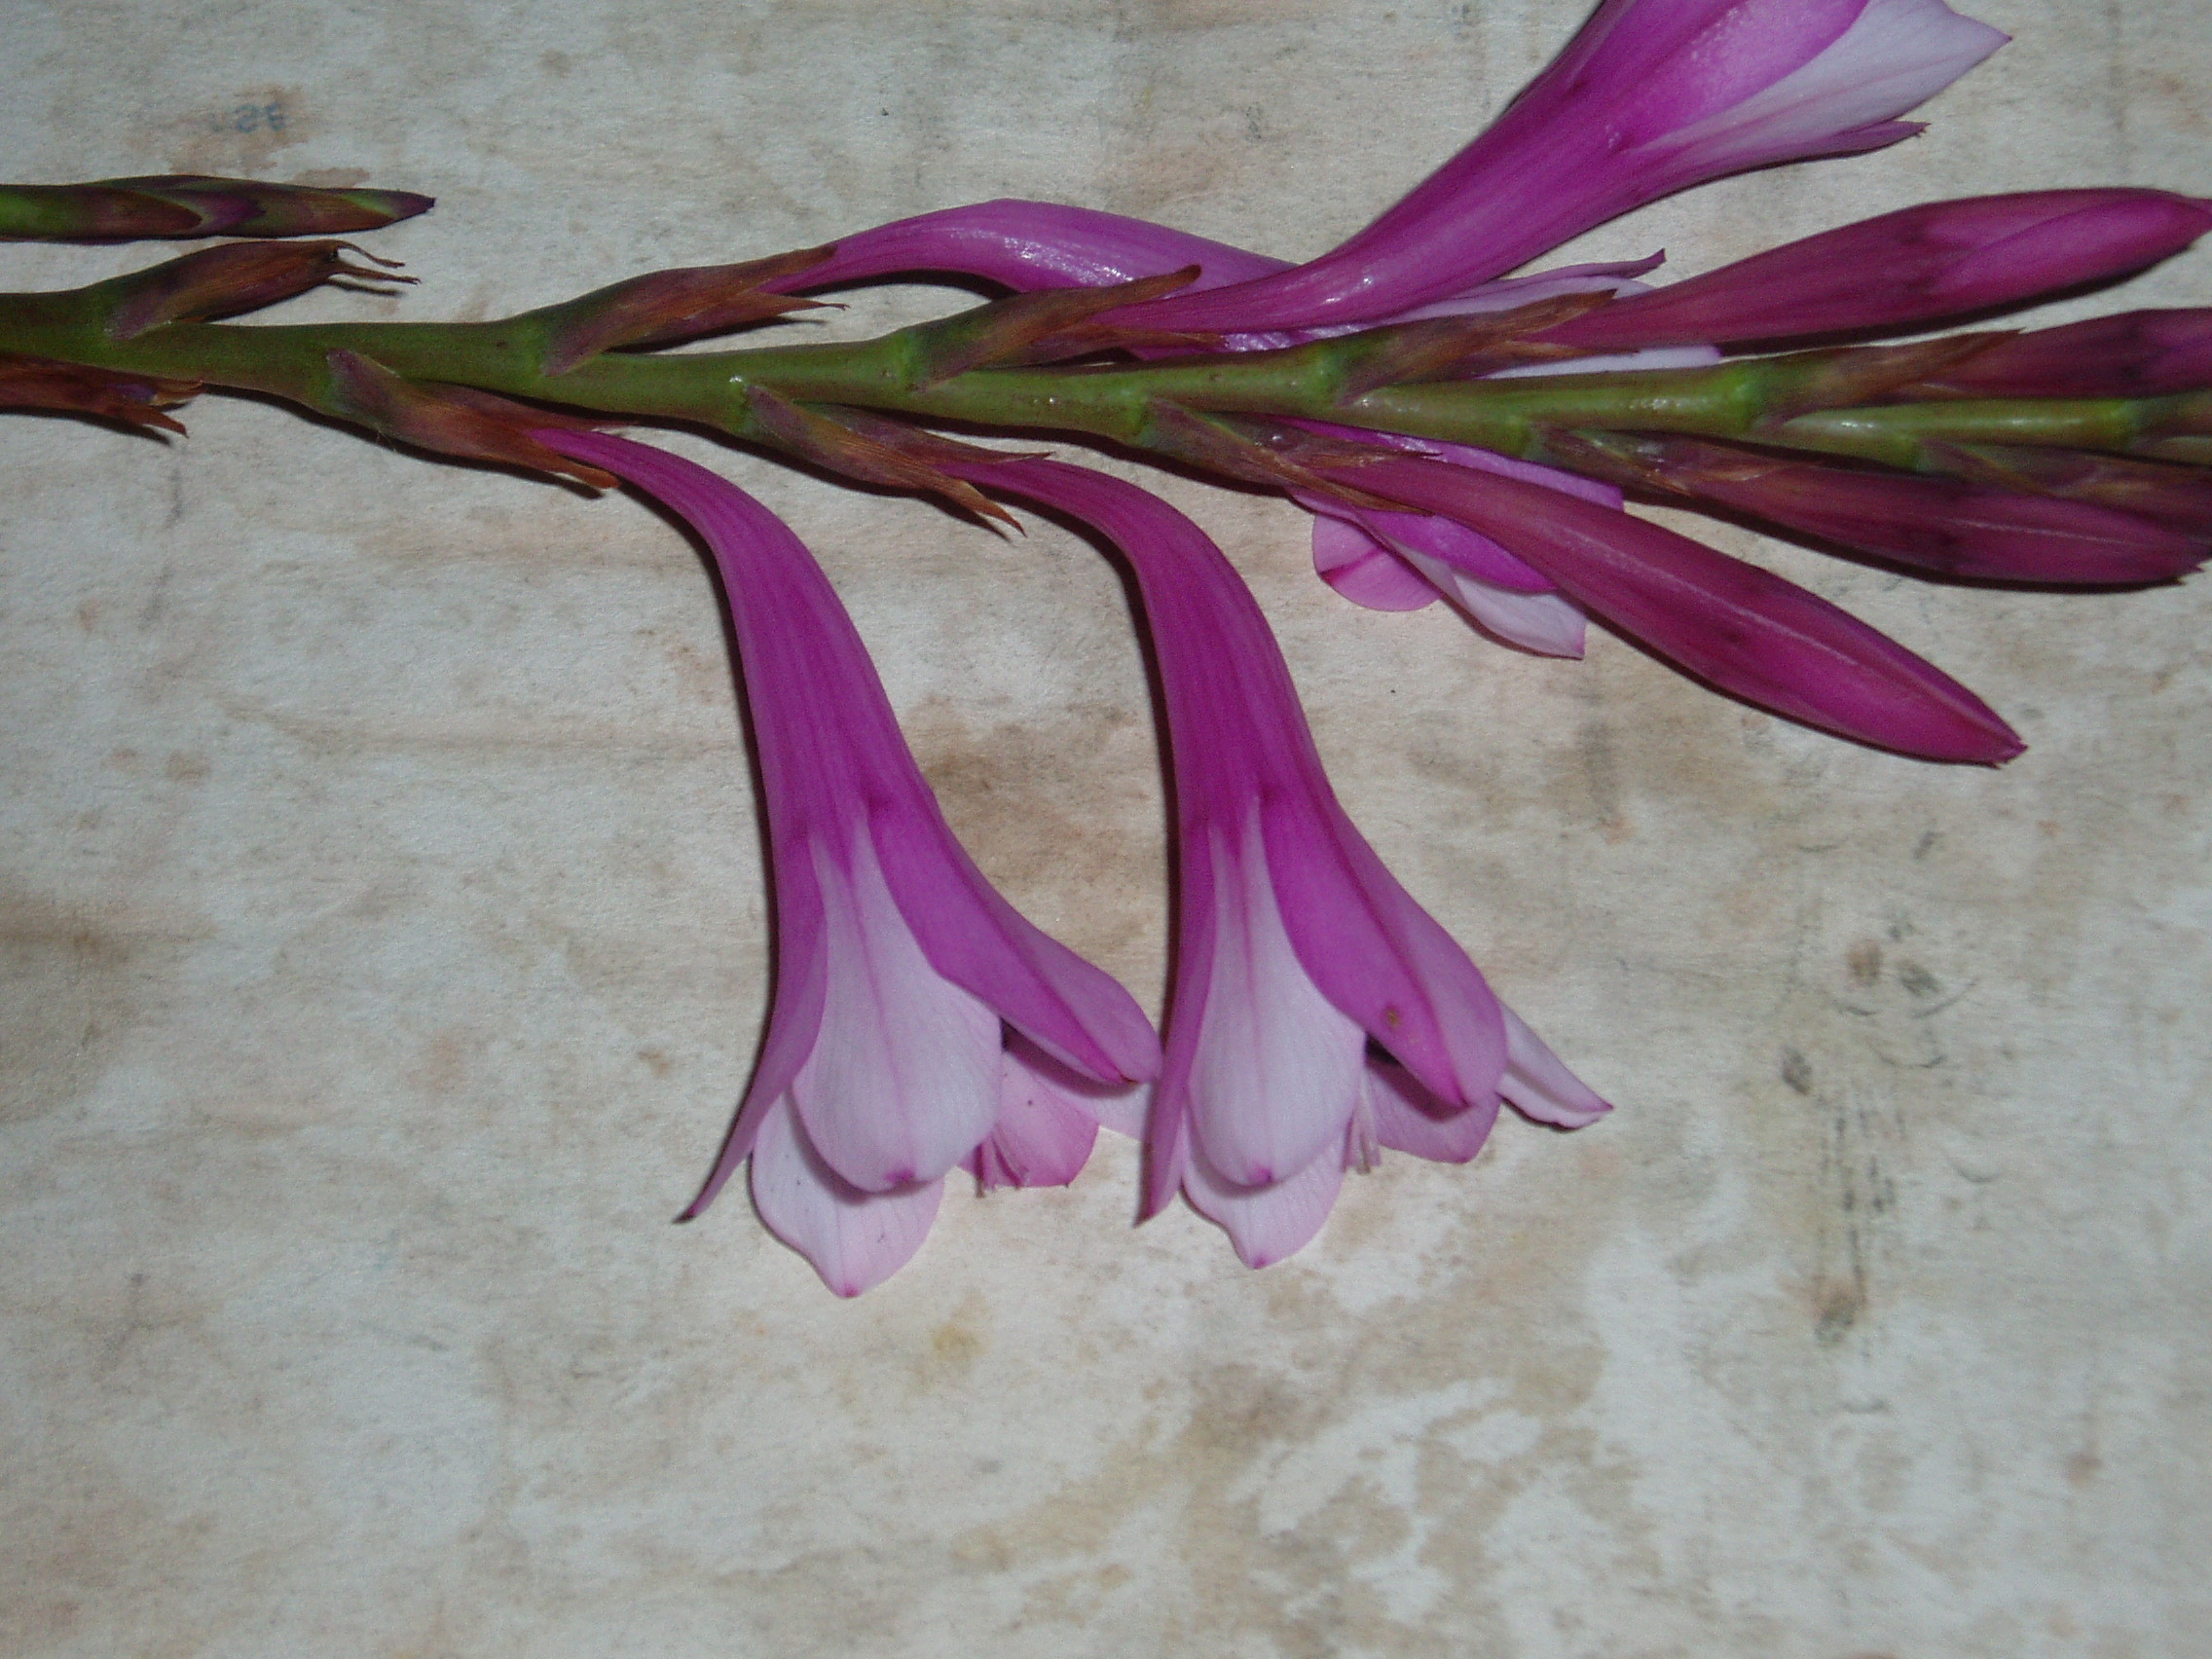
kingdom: Plantae
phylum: Tracheophyta
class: Liliopsida
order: Asparagales
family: Iridaceae
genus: Watsonia
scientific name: Watsonia meriana
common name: Bulbil bugle-lily
